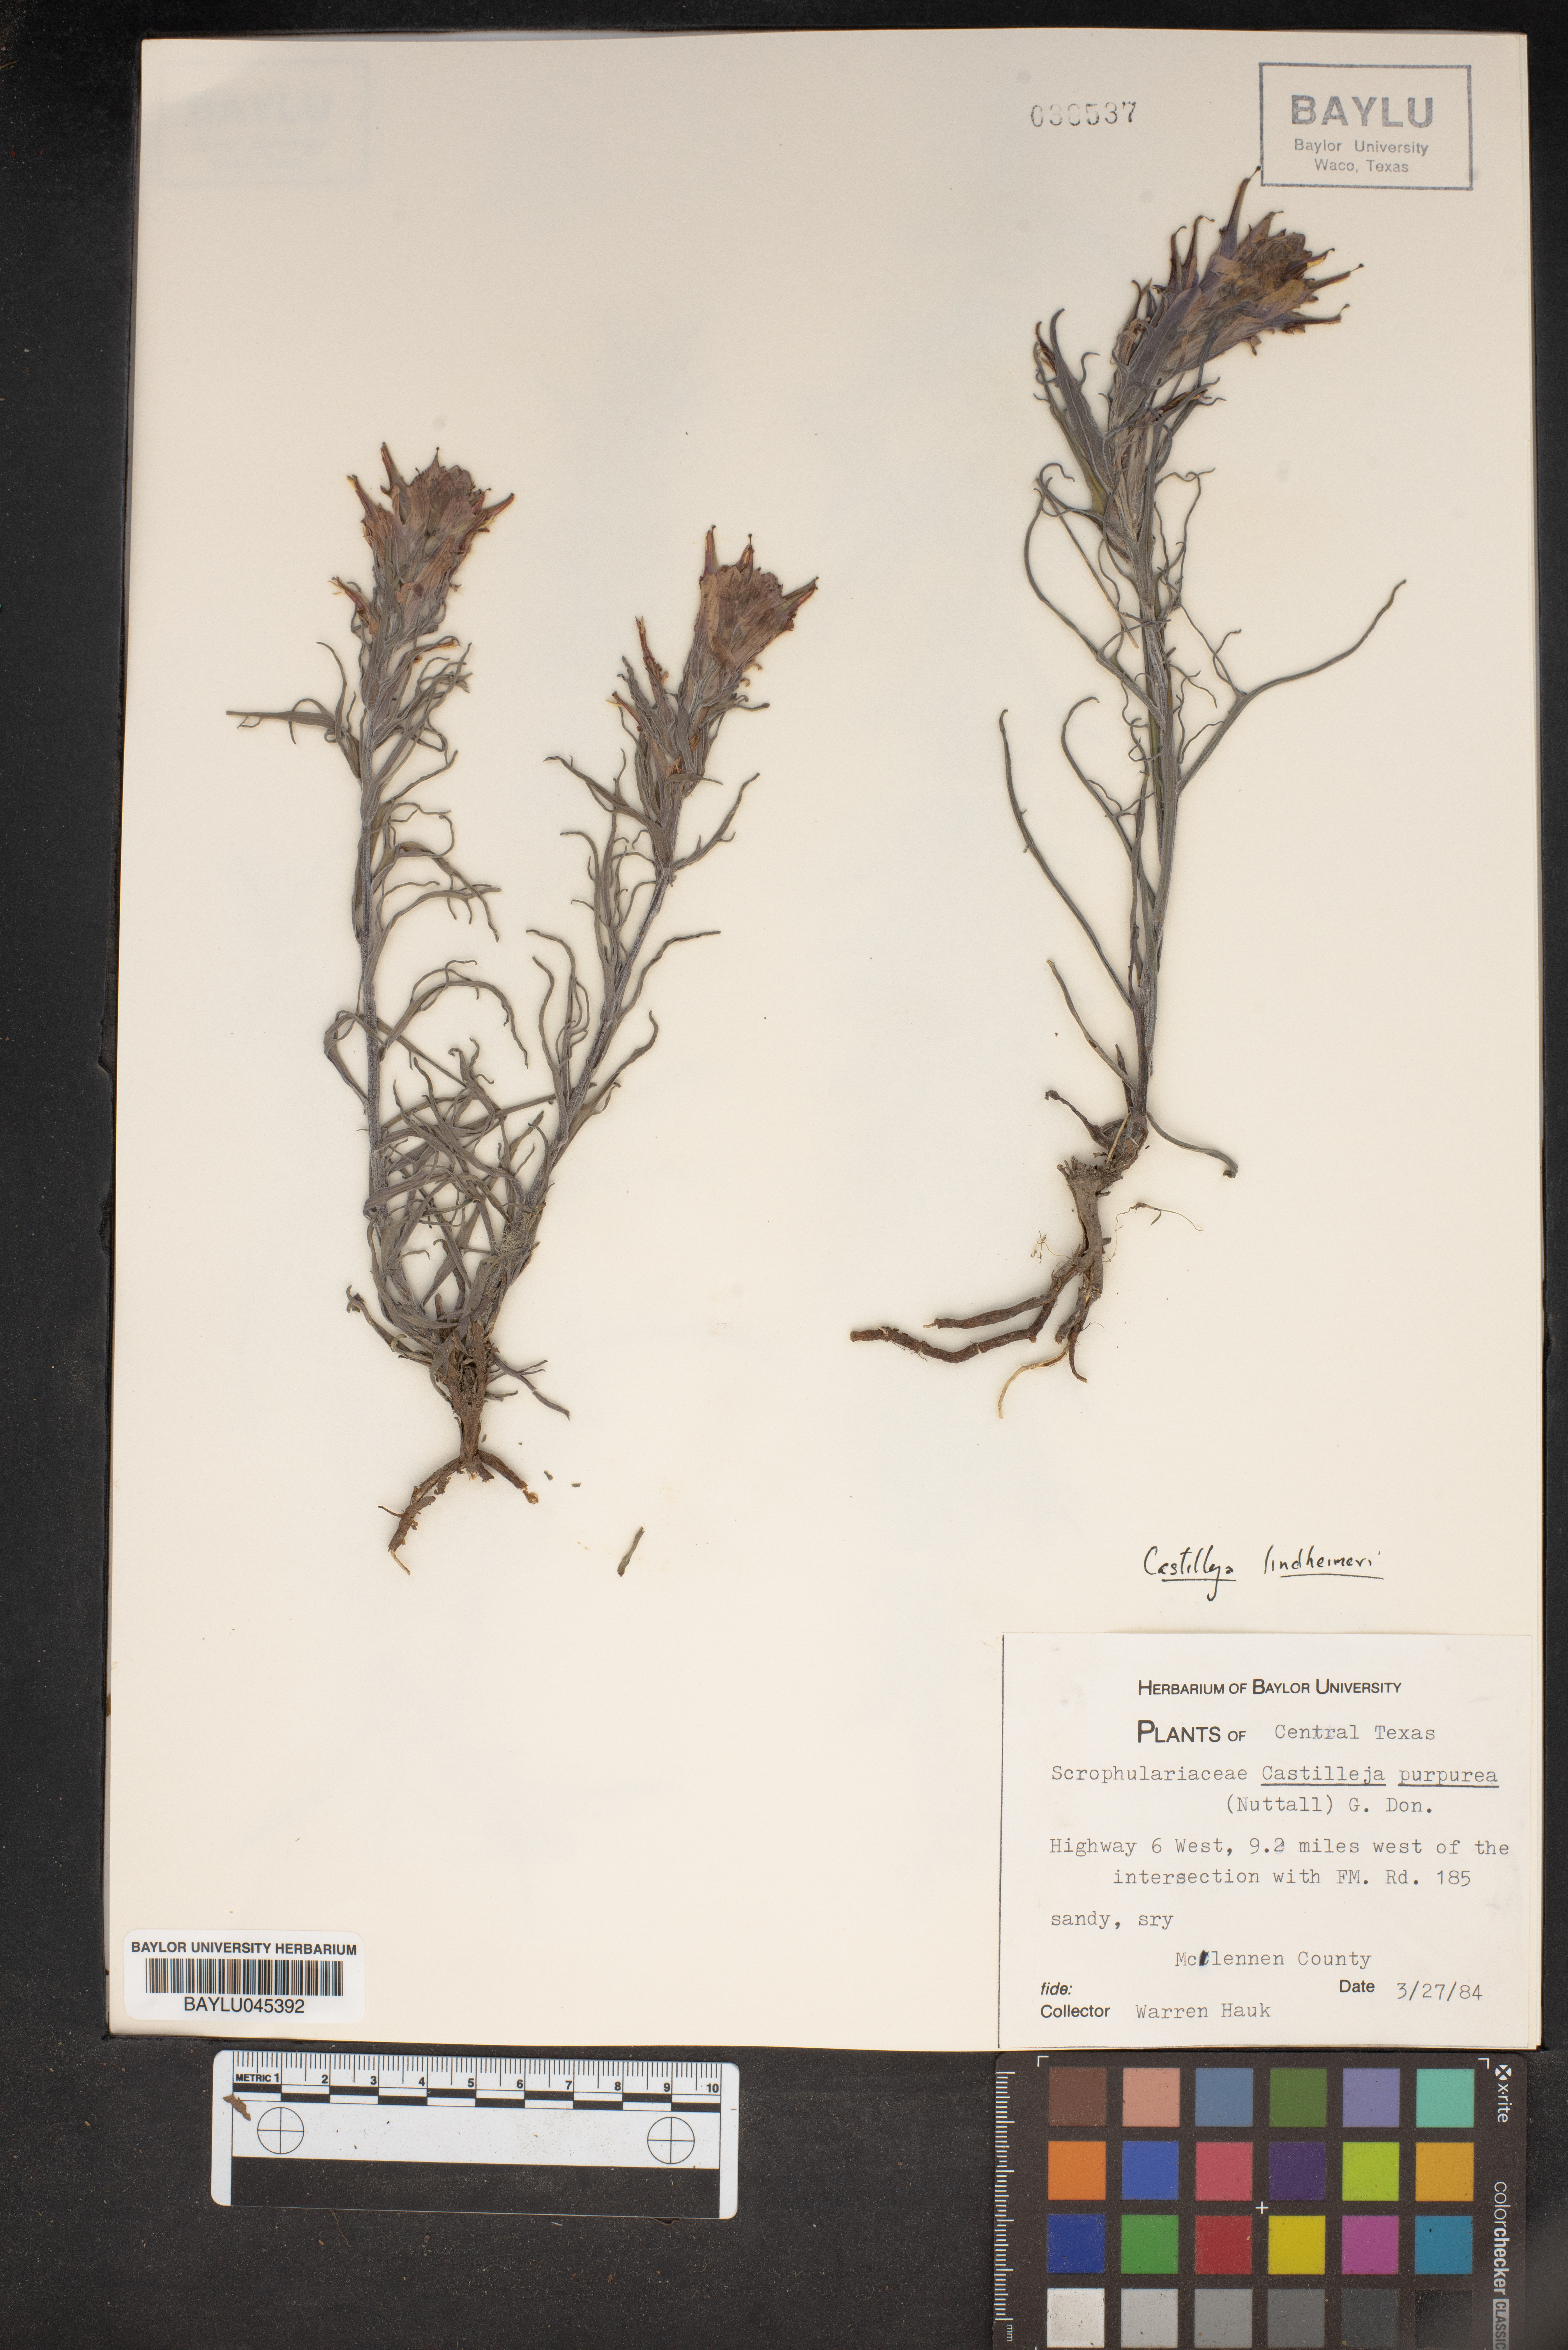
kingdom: Plantae
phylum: Tracheophyta
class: Magnoliopsida
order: Lamiales
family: Orobanchaceae
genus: Castilleja
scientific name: Castilleja purpurea
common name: Plains paintbrush
